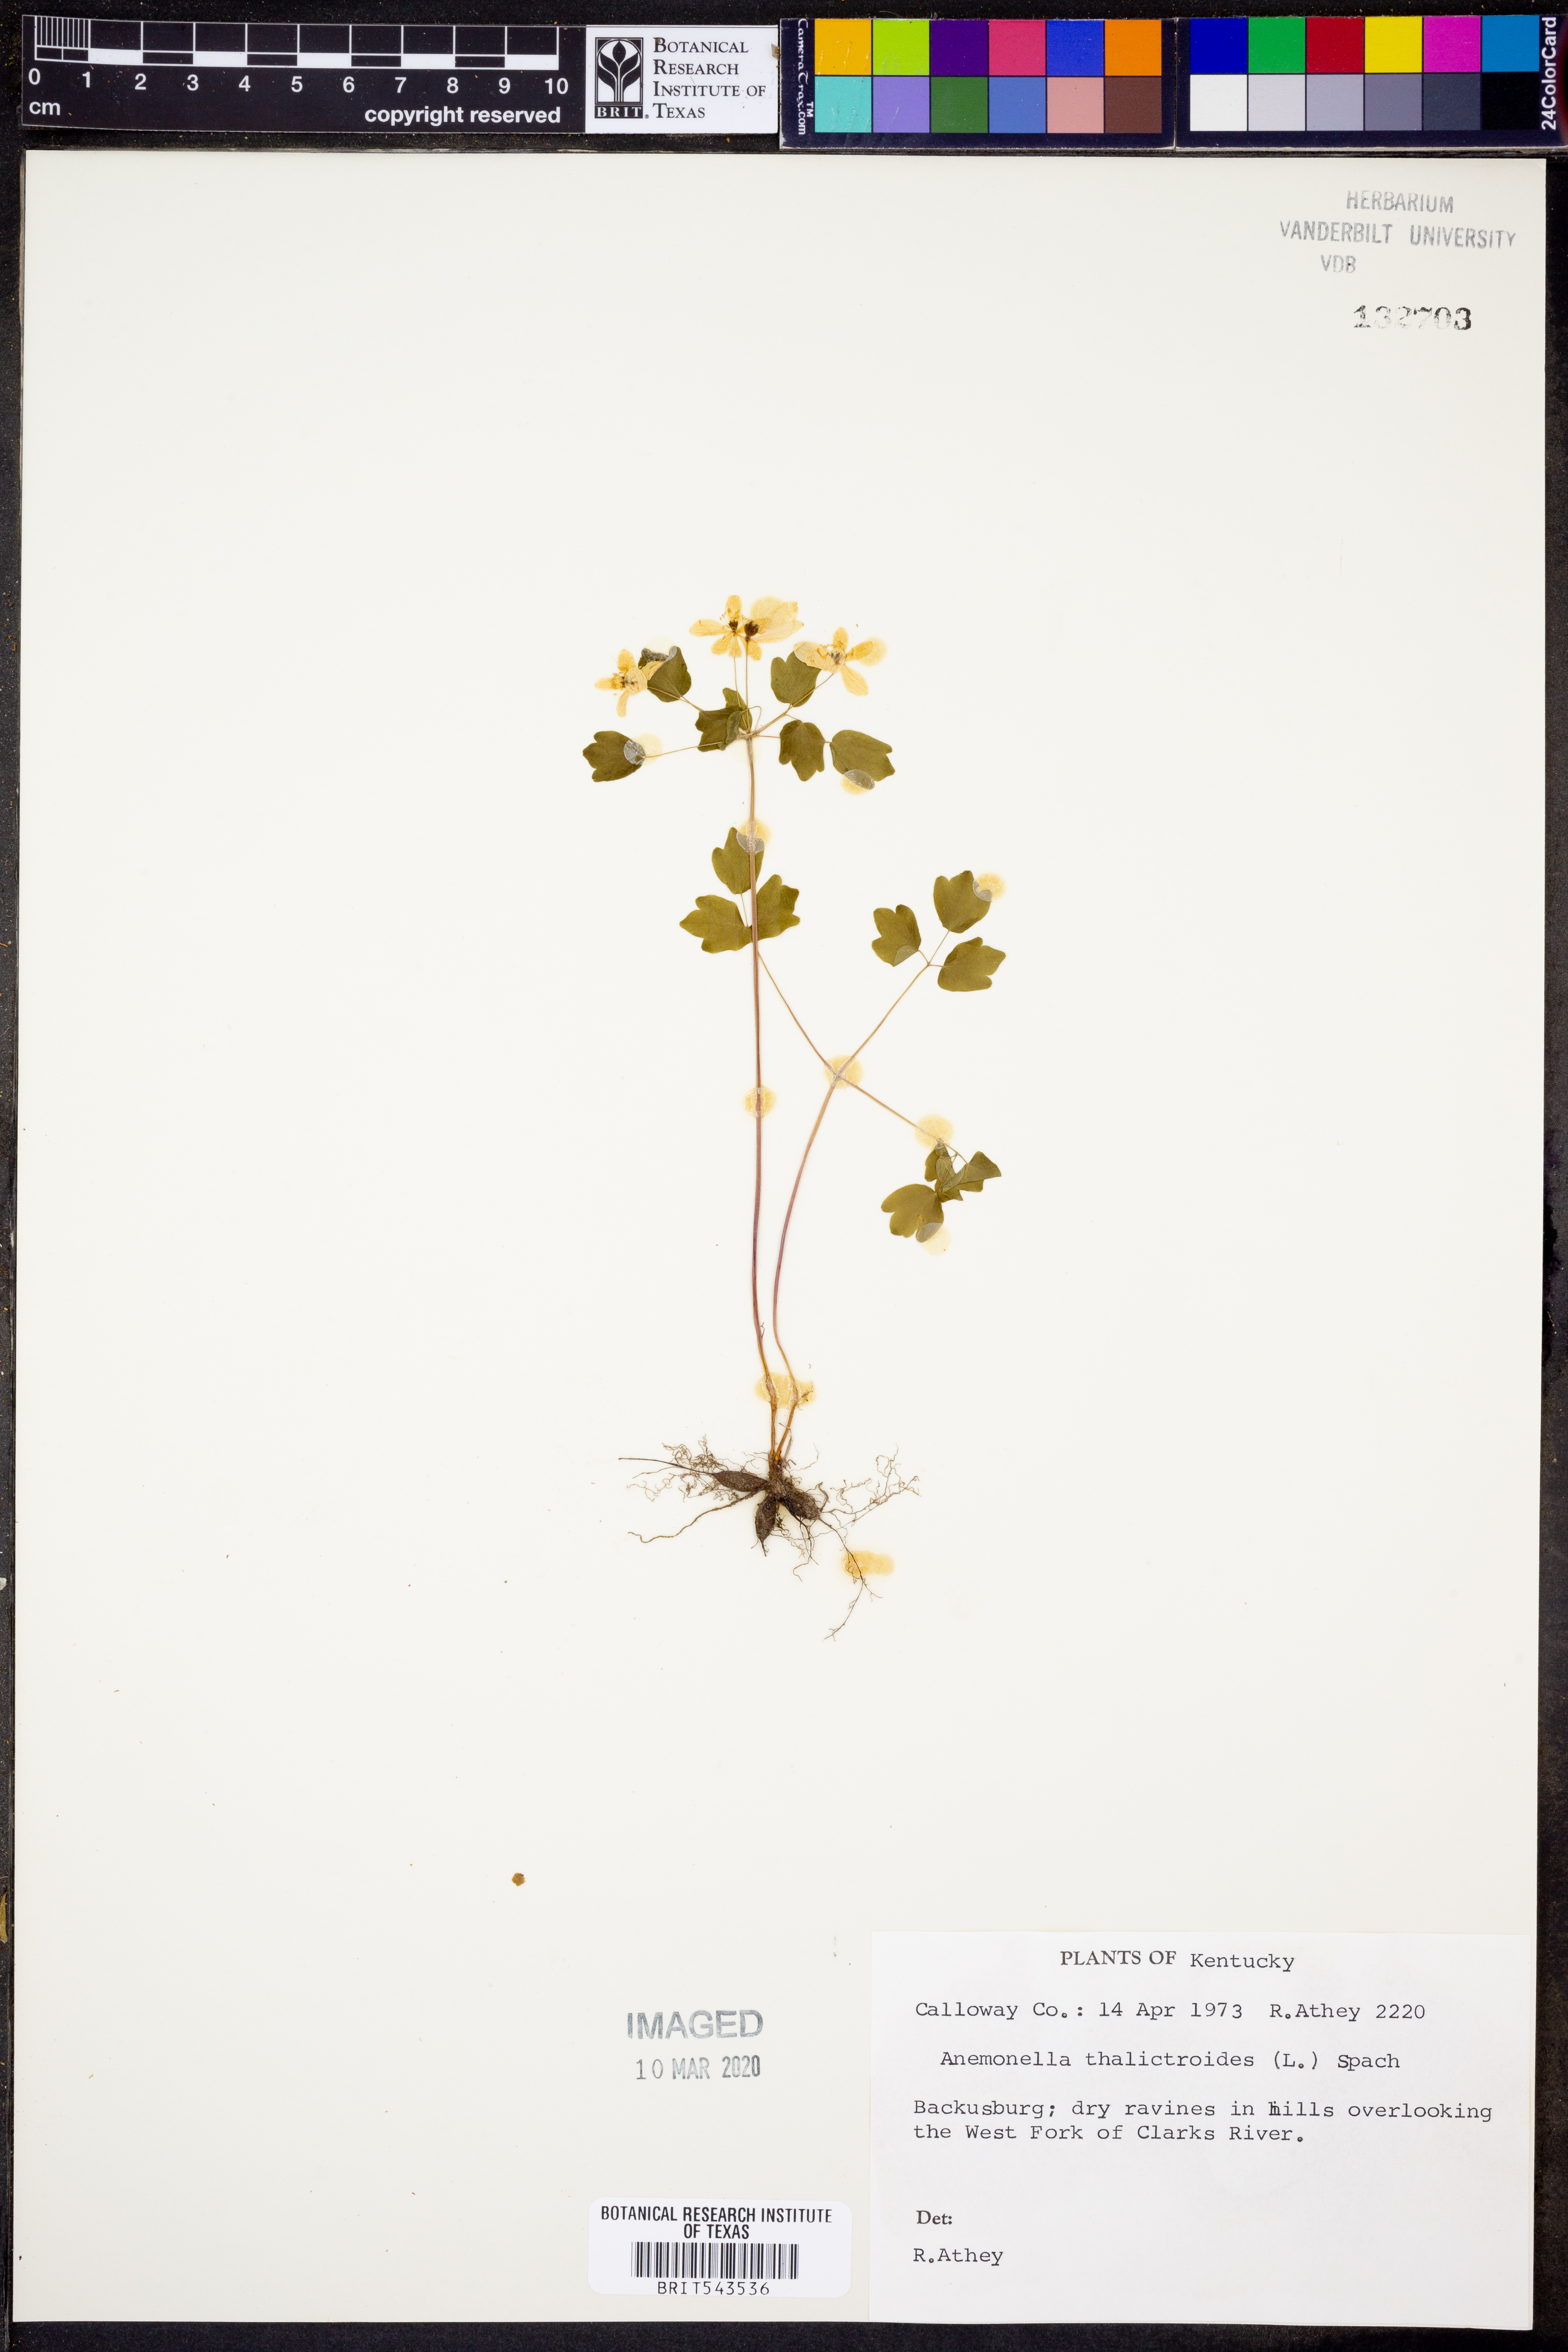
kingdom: Plantae
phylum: Tracheophyta
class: Magnoliopsida
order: Ranunculales
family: Ranunculaceae
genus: Thalictrum
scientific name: Thalictrum thalictroides
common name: Rue-anemone
